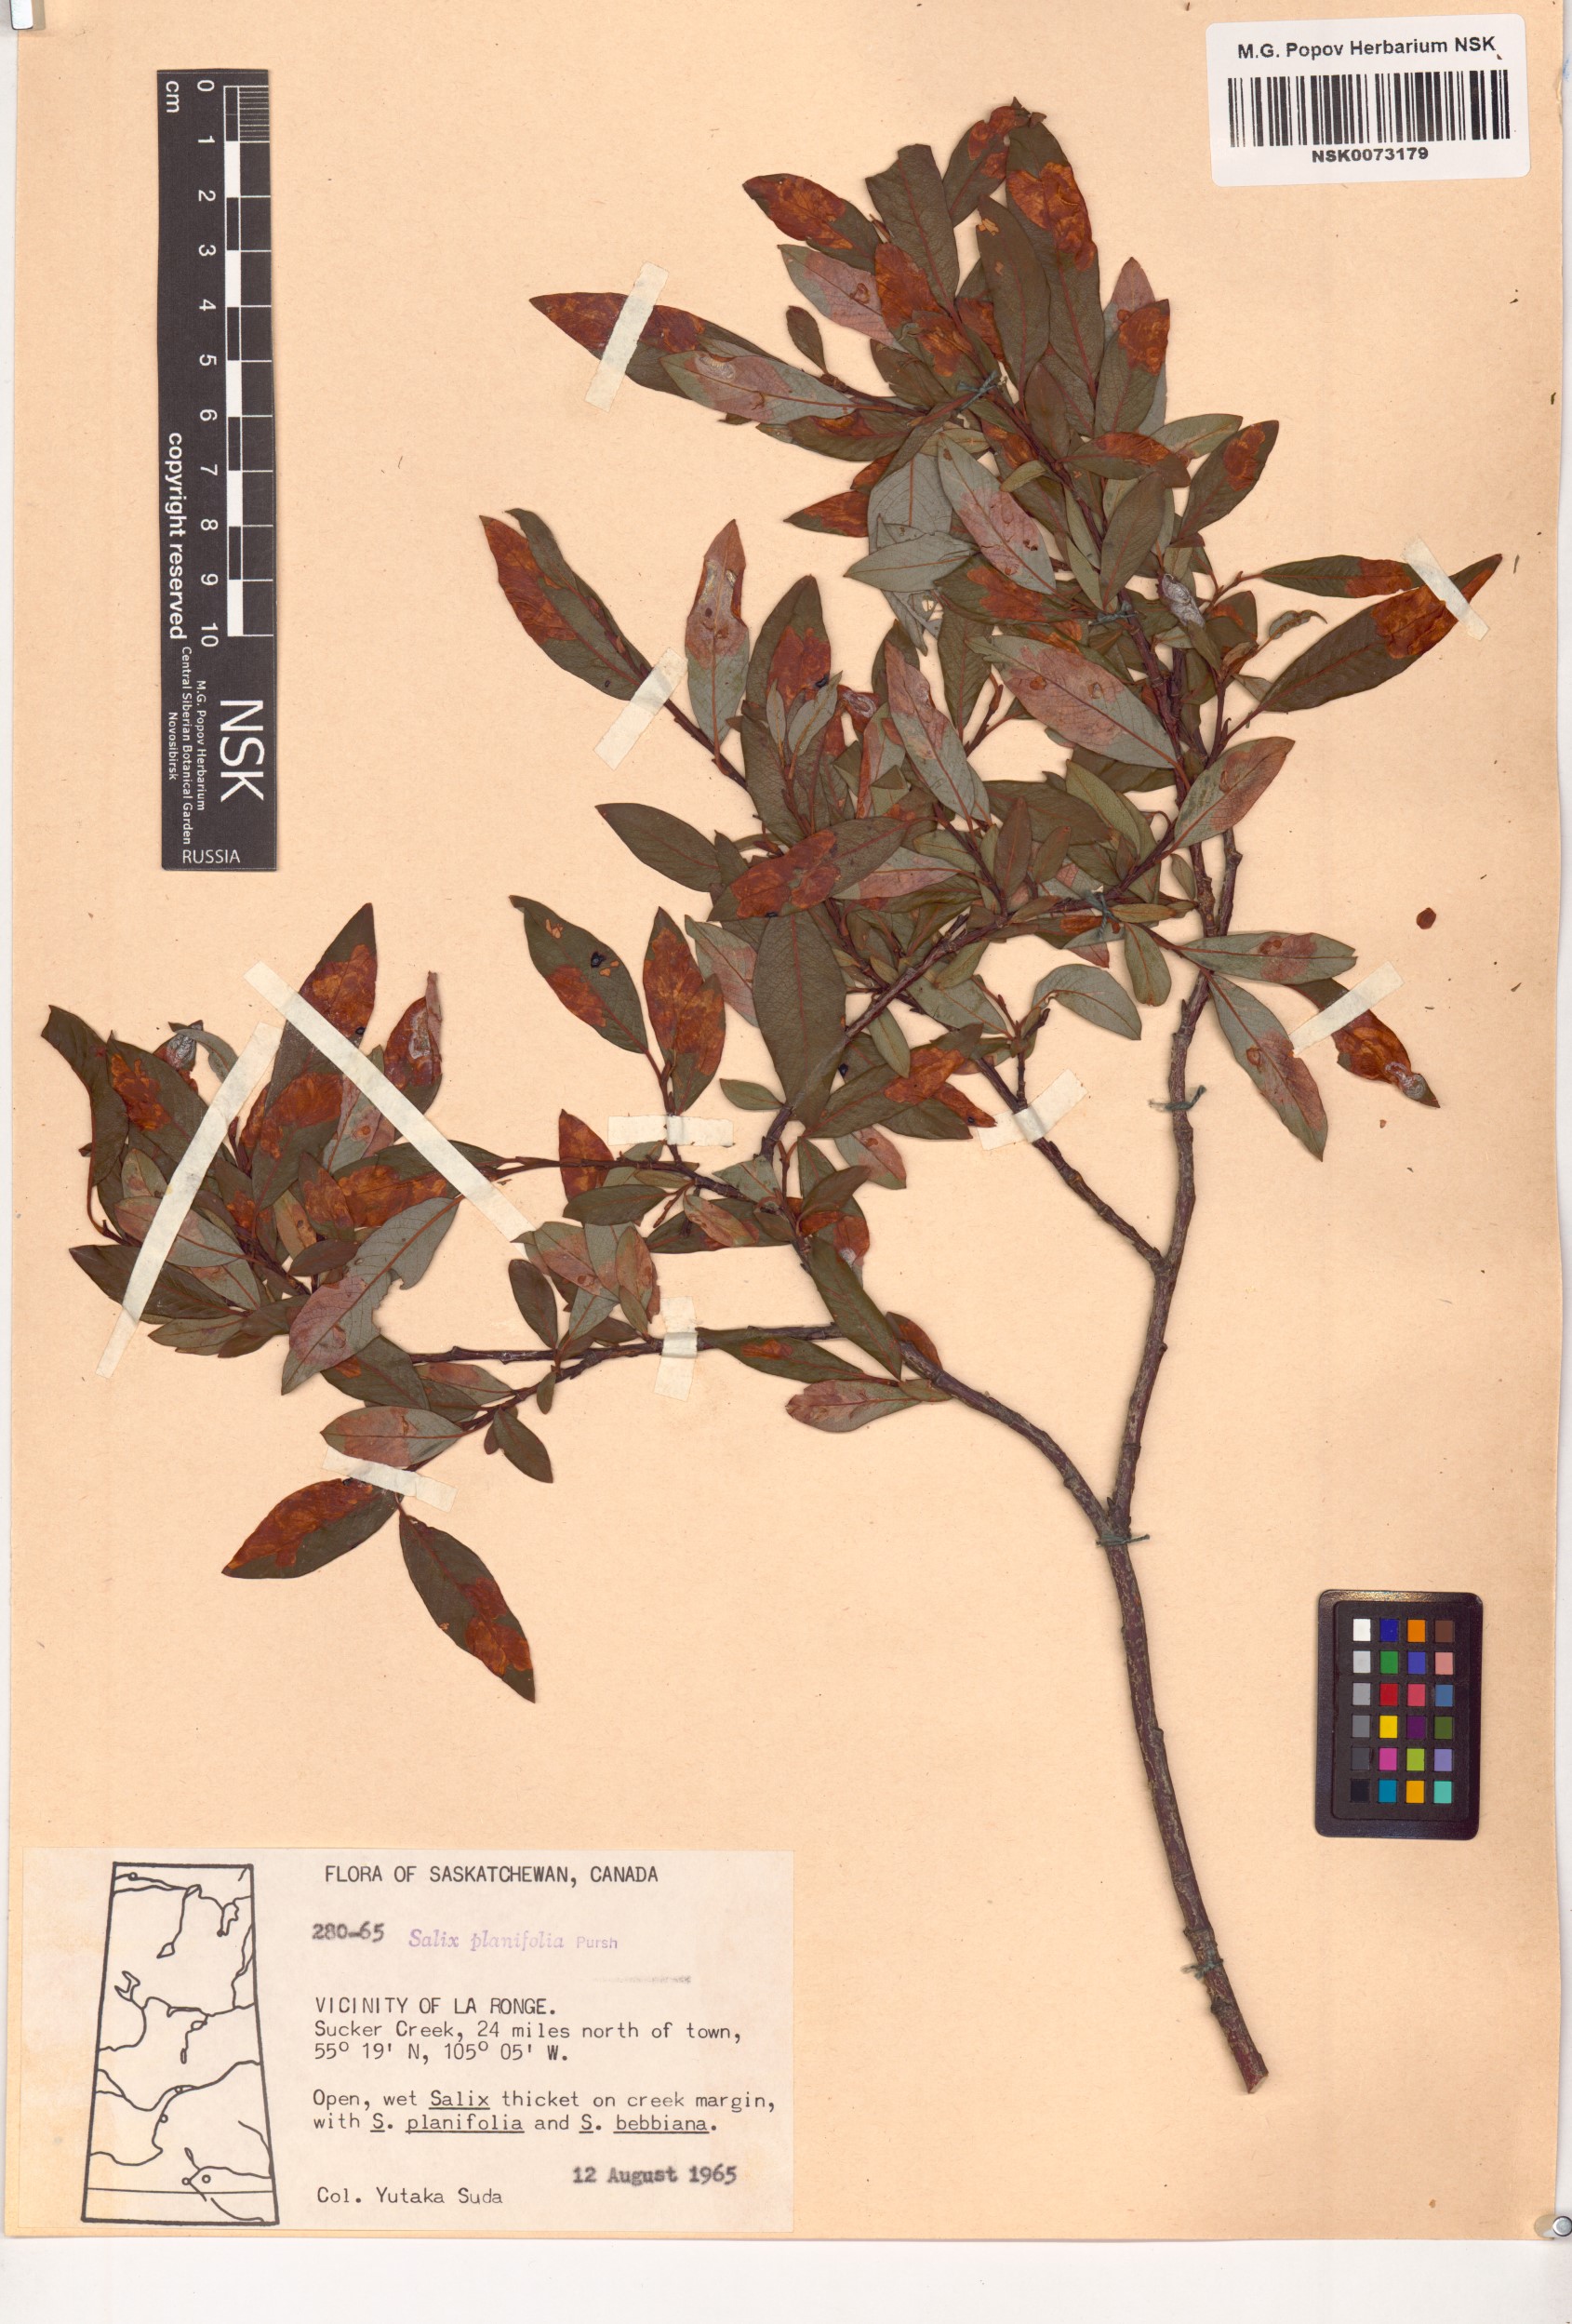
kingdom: Plantae
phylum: Tracheophyta
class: Magnoliopsida
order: Malpighiales
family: Salicaceae
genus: Salix
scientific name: Salix planifolia
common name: Mountain willow
